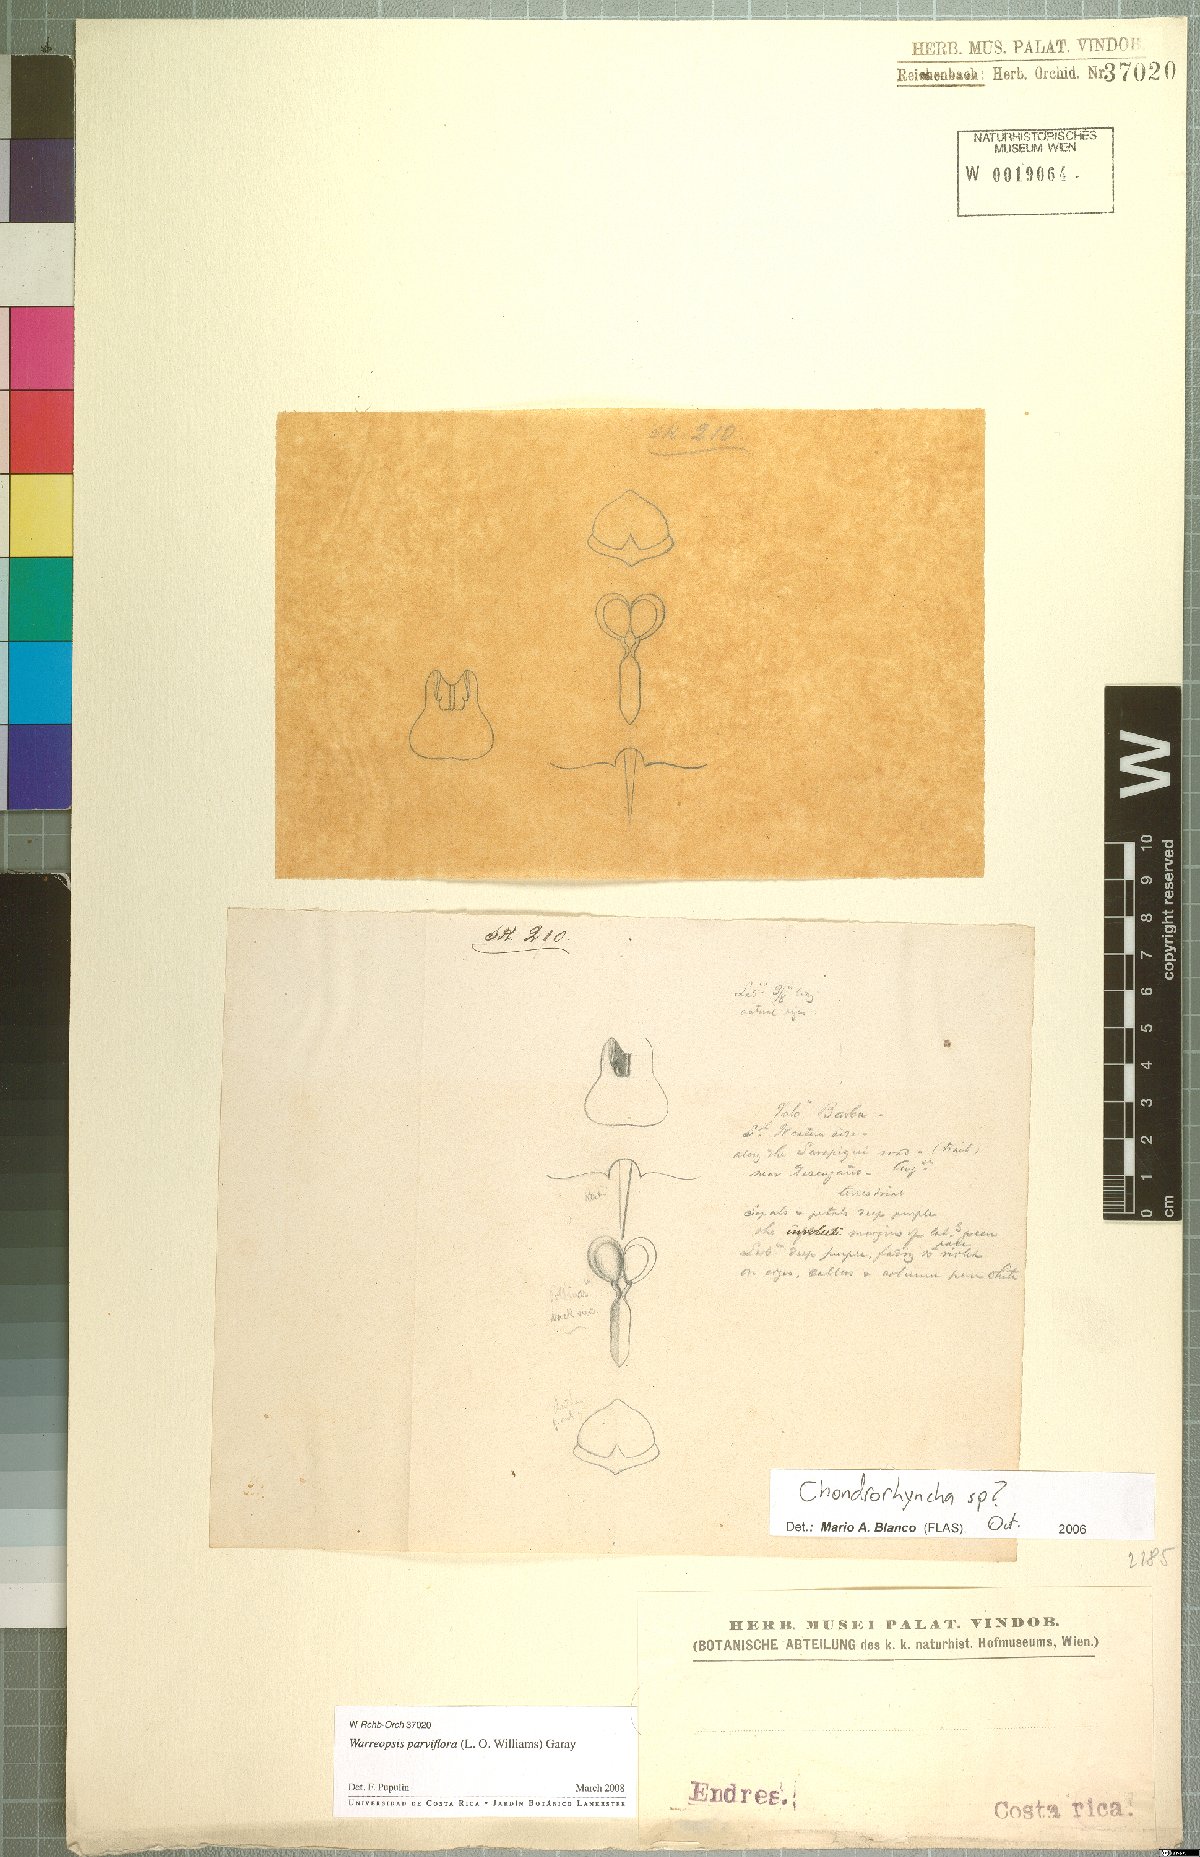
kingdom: Plantae
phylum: Tracheophyta
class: Liliopsida
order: Asparagales
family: Orchidaceae
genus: Warreopsis
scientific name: Warreopsis parviflora
